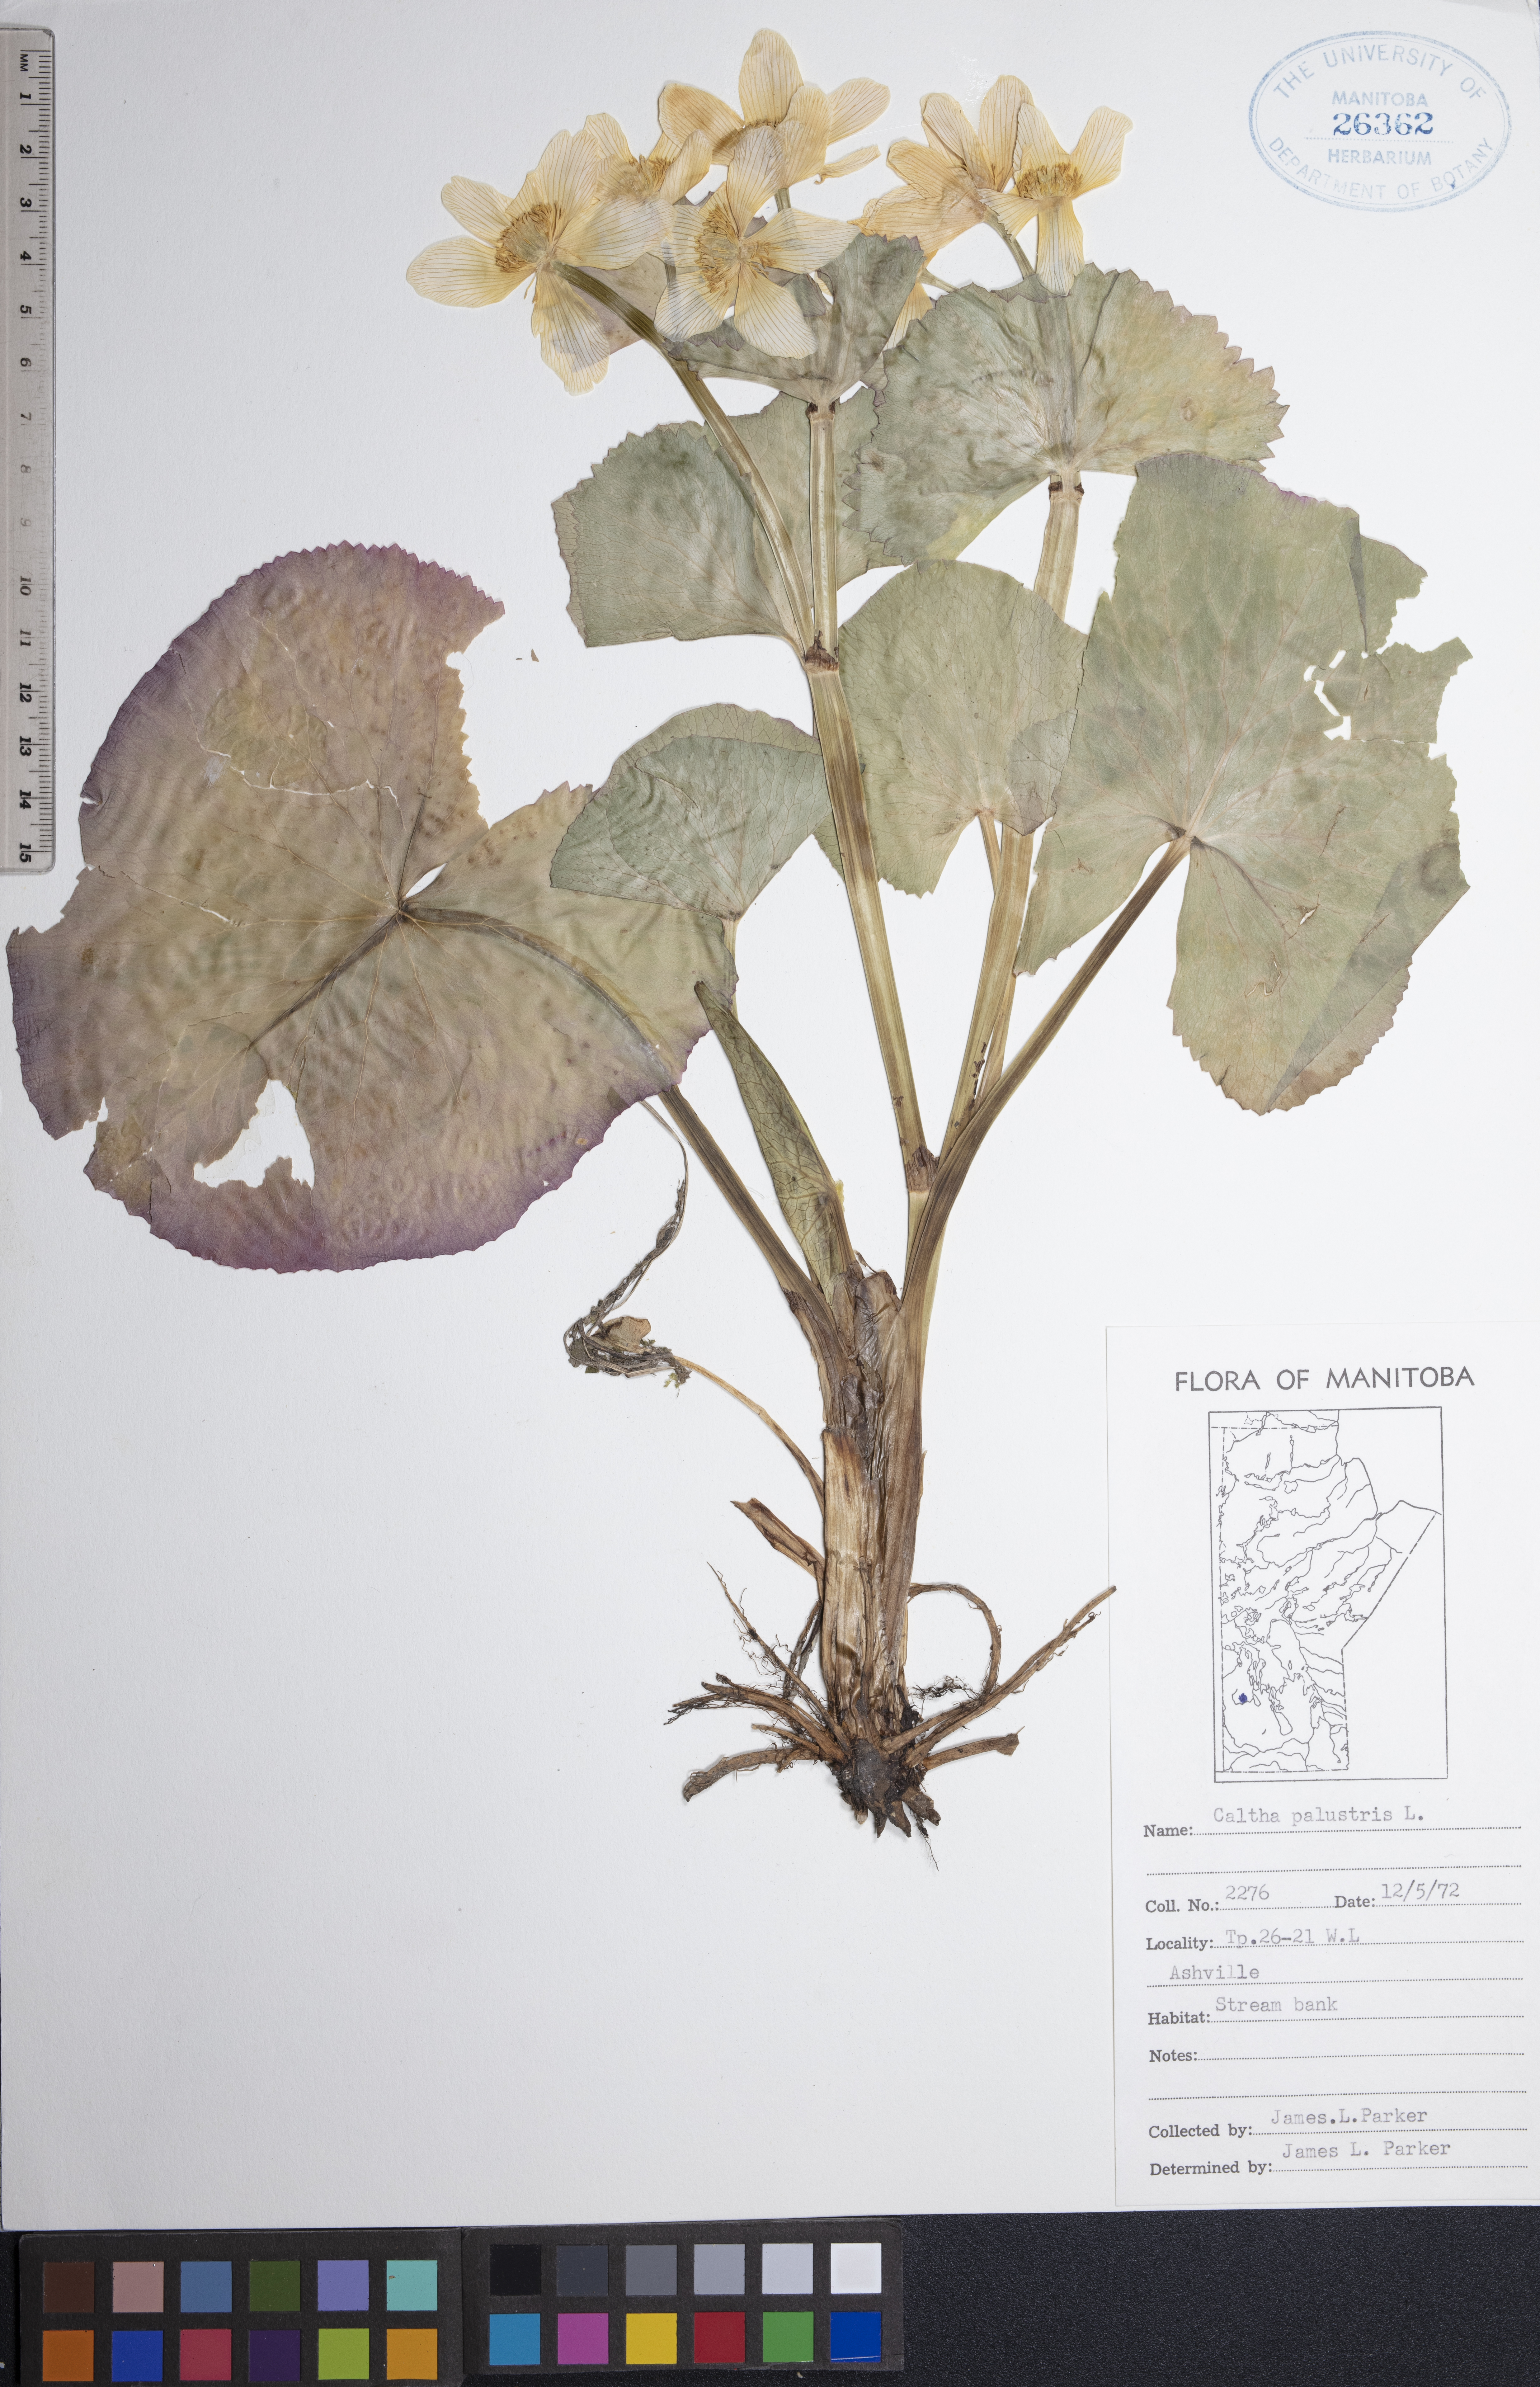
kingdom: Plantae
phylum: Tracheophyta
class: Magnoliopsida
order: Ranunculales
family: Ranunculaceae
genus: Caltha
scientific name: Caltha palustris
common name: Marsh marigold
